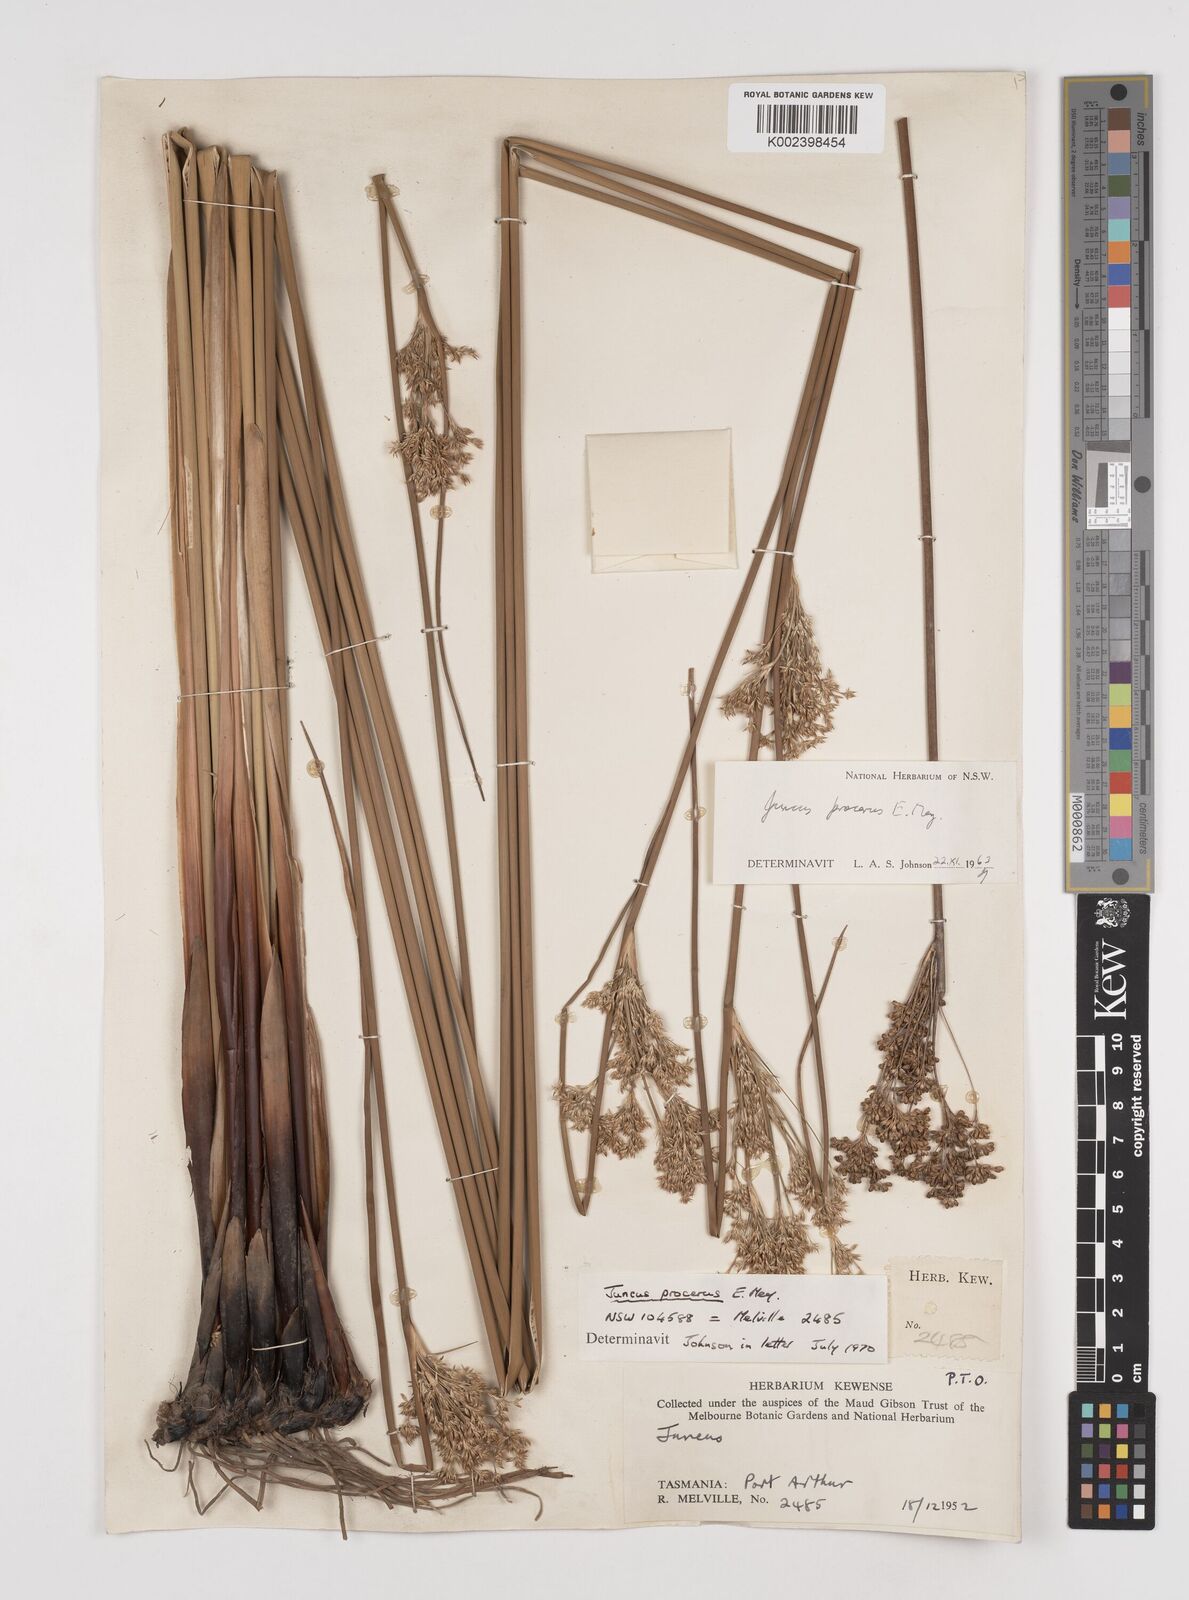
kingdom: Plantae
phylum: Tracheophyta
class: Liliopsida
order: Poales
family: Juncaceae
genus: Juncus
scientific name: Juncus procerus
